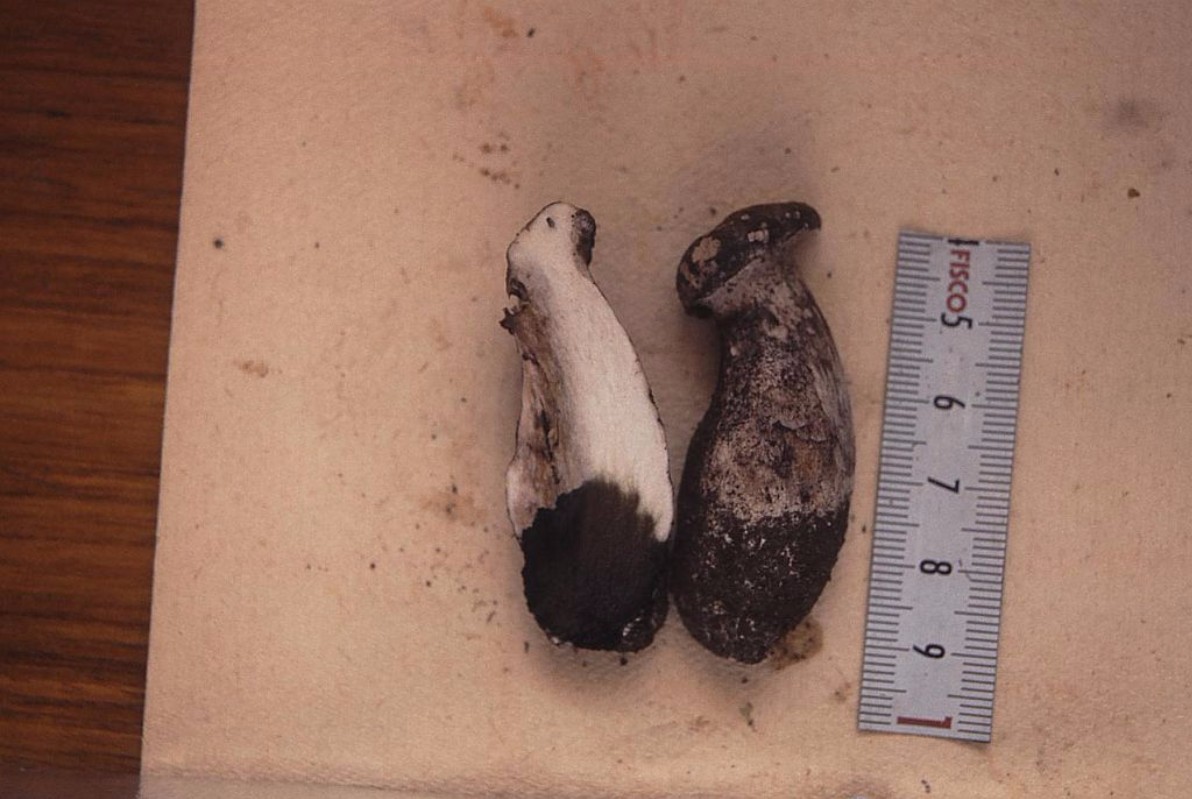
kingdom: Fungi
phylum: Basidiomycota
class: Agaricomycetes
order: Thelephorales
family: Bankeraceae
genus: Boletopsis
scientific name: Boletopsis leucomelaena
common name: sorthvid troldporesvamp
